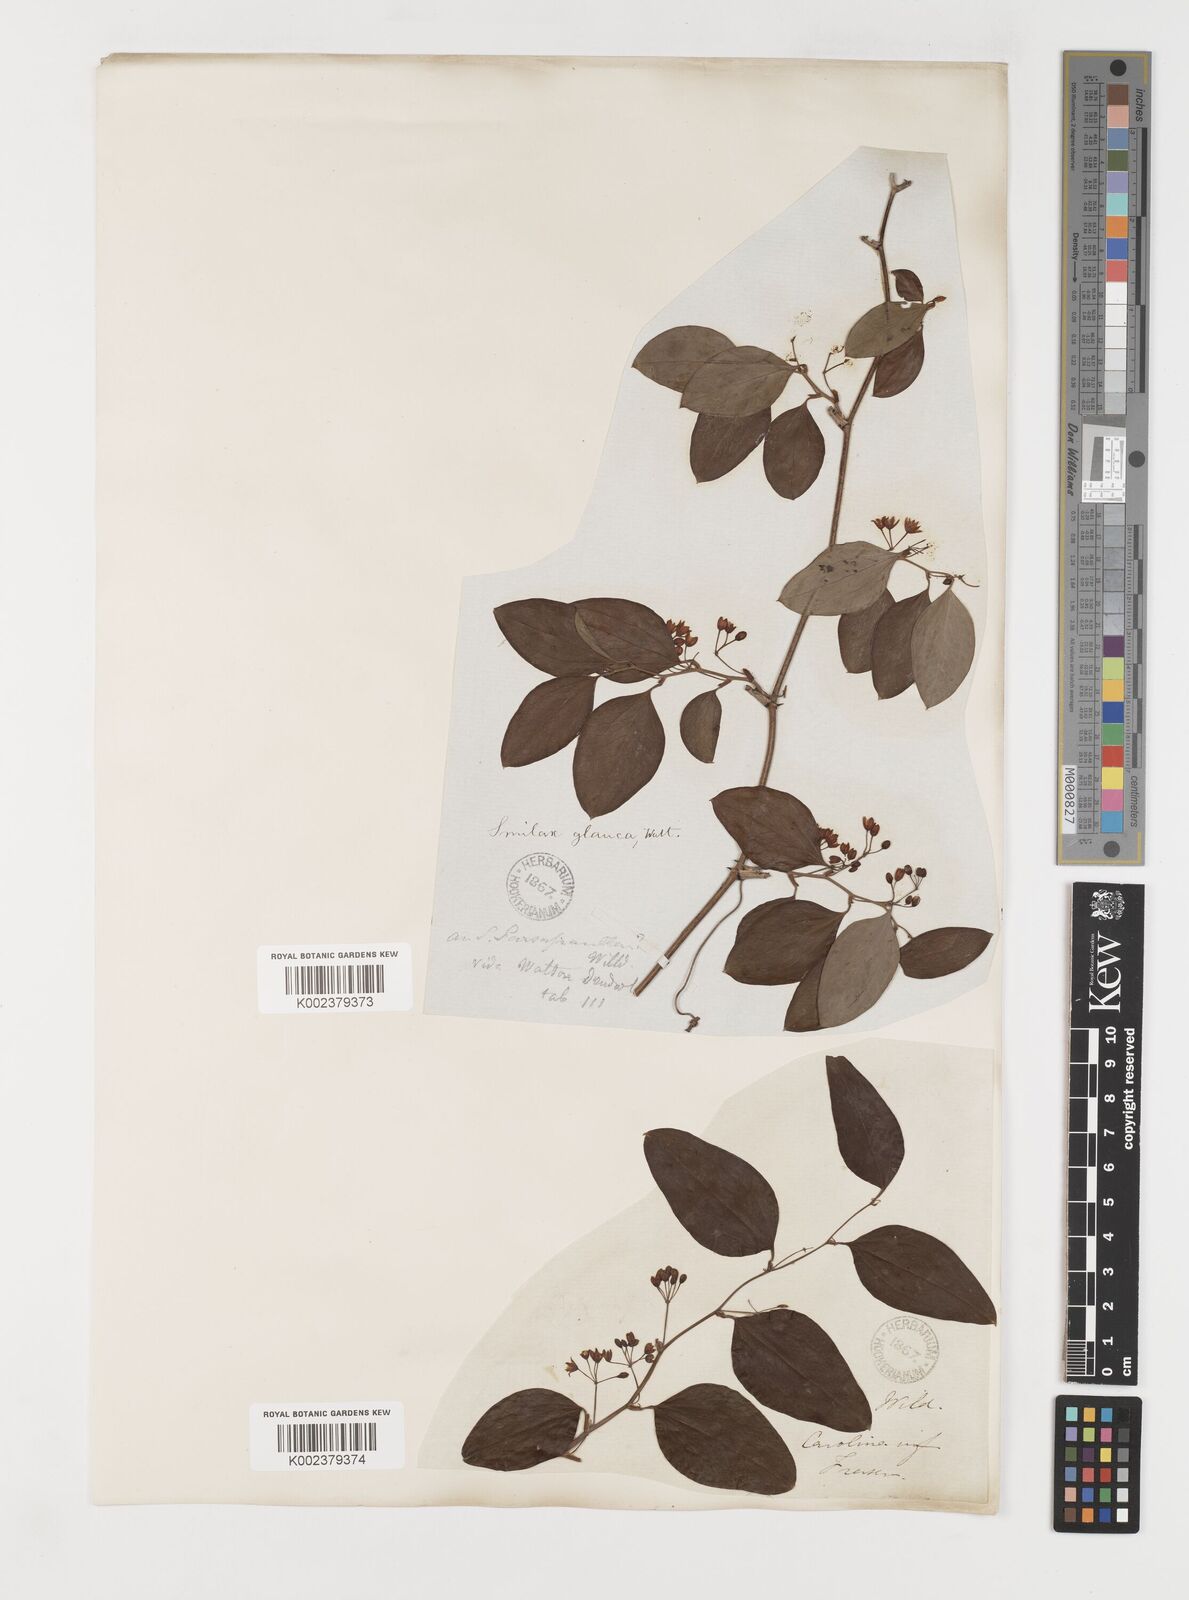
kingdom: Plantae
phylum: Tracheophyta
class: Liliopsida
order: Liliales
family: Smilacaceae
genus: Smilax
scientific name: Smilax glauca
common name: Cat greenbrier
